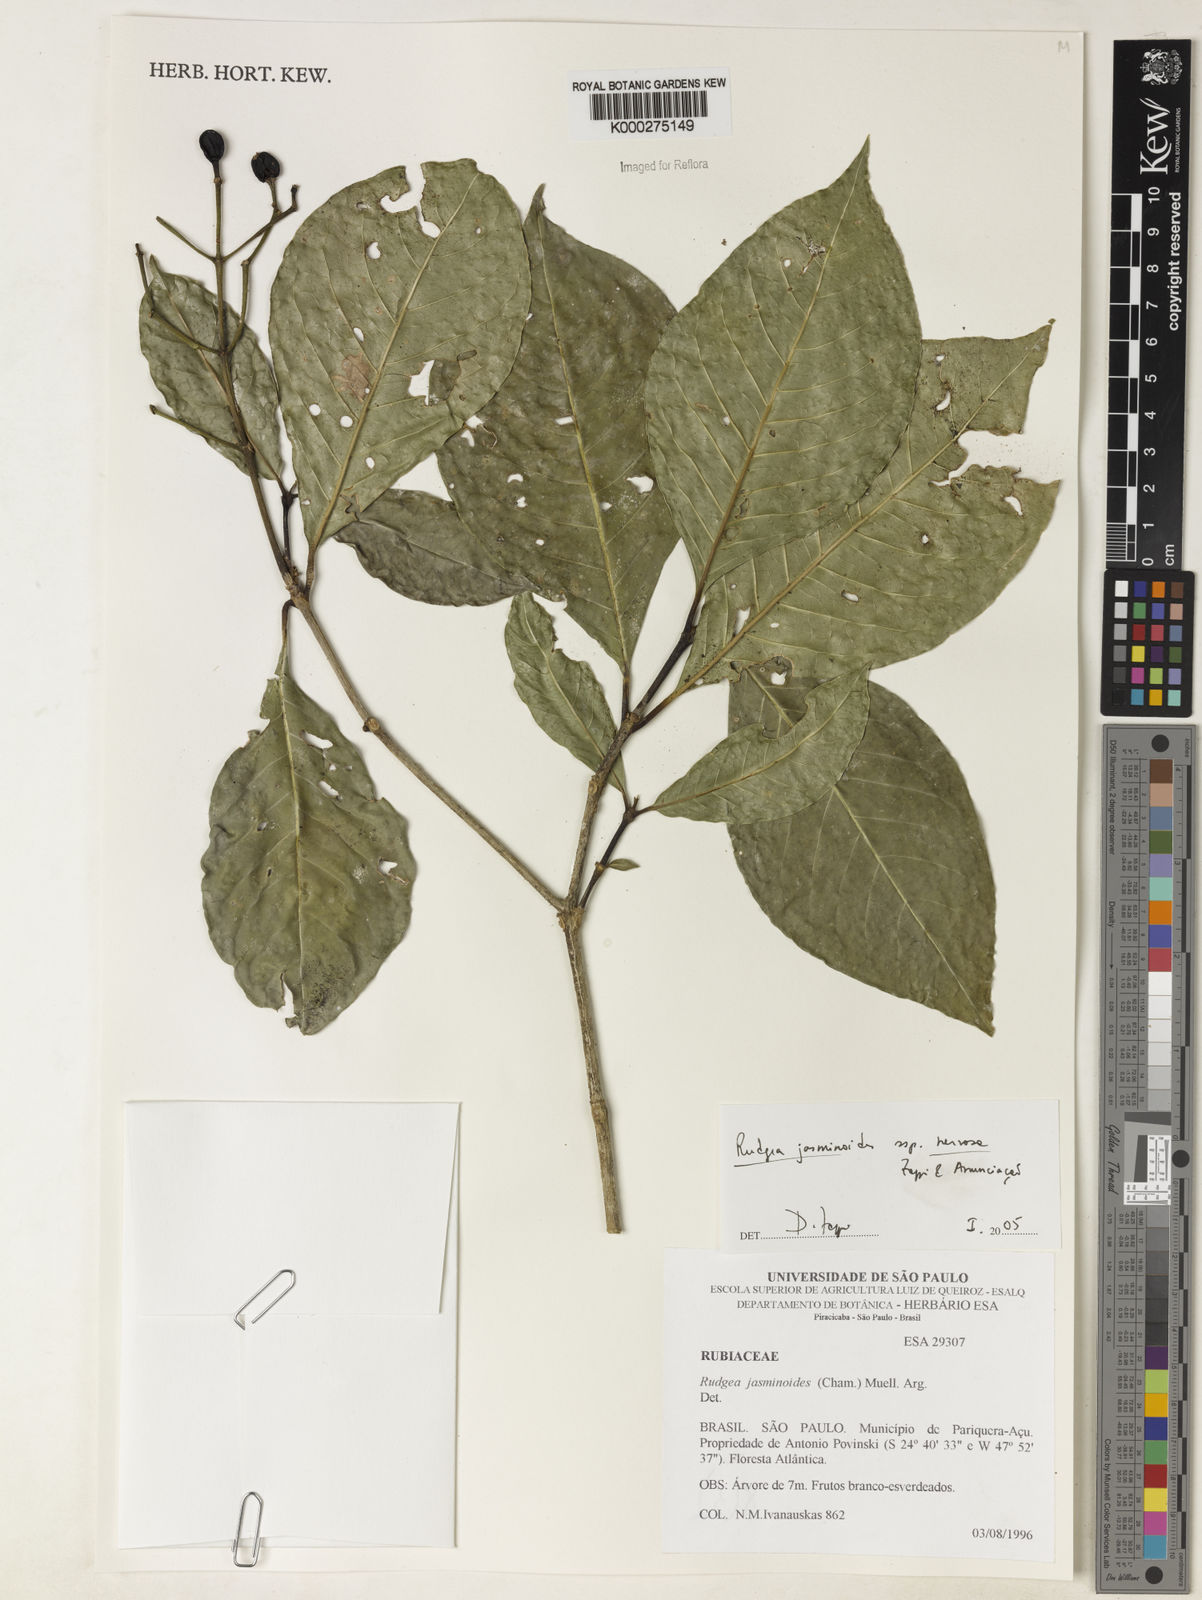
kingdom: Plantae
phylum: Tracheophyta
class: Magnoliopsida
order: Gentianales
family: Rubiaceae
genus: Rudgea
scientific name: Rudgea jasminoides
